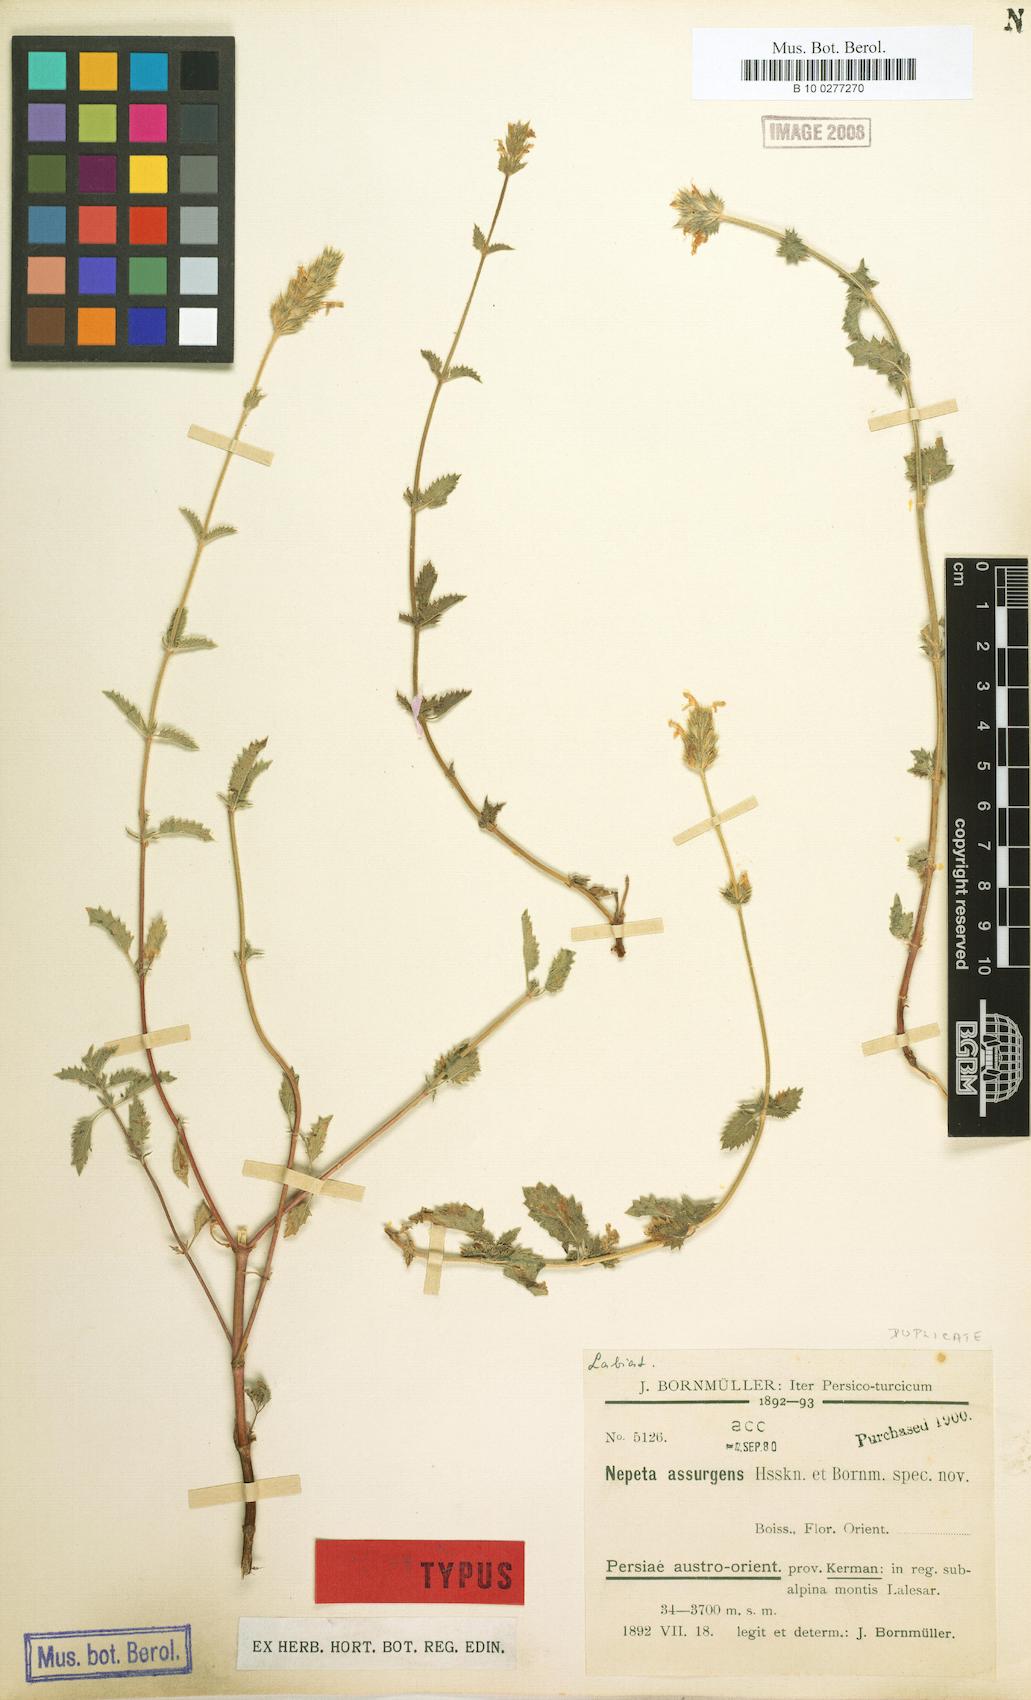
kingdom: Plantae
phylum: Tracheophyta
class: Magnoliopsida
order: Lamiales
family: Lamiaceae
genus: Nepeta
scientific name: Nepeta assurgens
